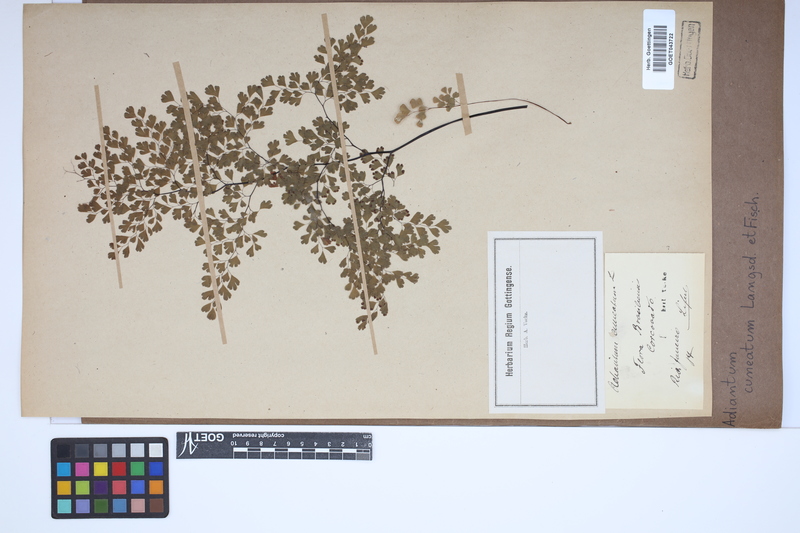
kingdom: Plantae
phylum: Tracheophyta
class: Polypodiopsida
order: Polypodiales
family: Pteridaceae
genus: Adiantum
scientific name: Adiantum raddianum
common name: Delta maidenhair fern
